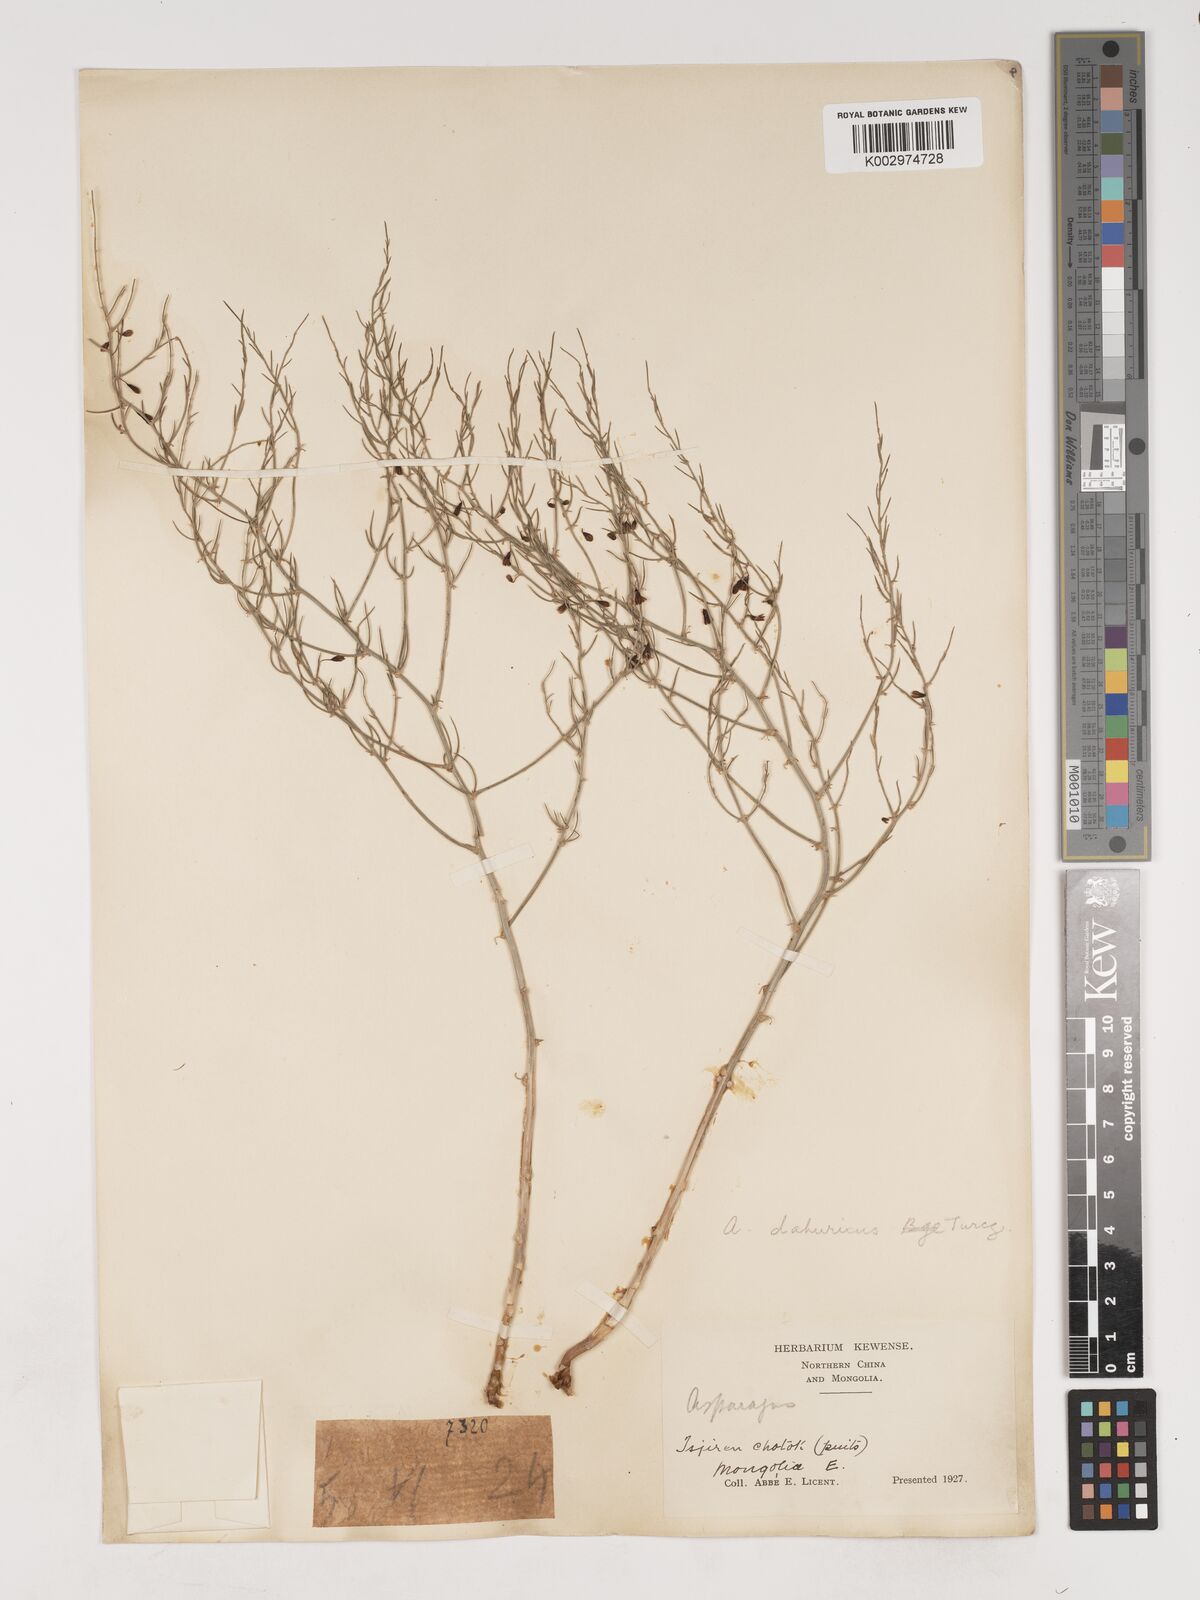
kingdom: Plantae
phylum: Tracheophyta
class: Liliopsida
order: Asparagales
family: Asparagaceae
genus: Asparagus
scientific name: Asparagus dauricus
